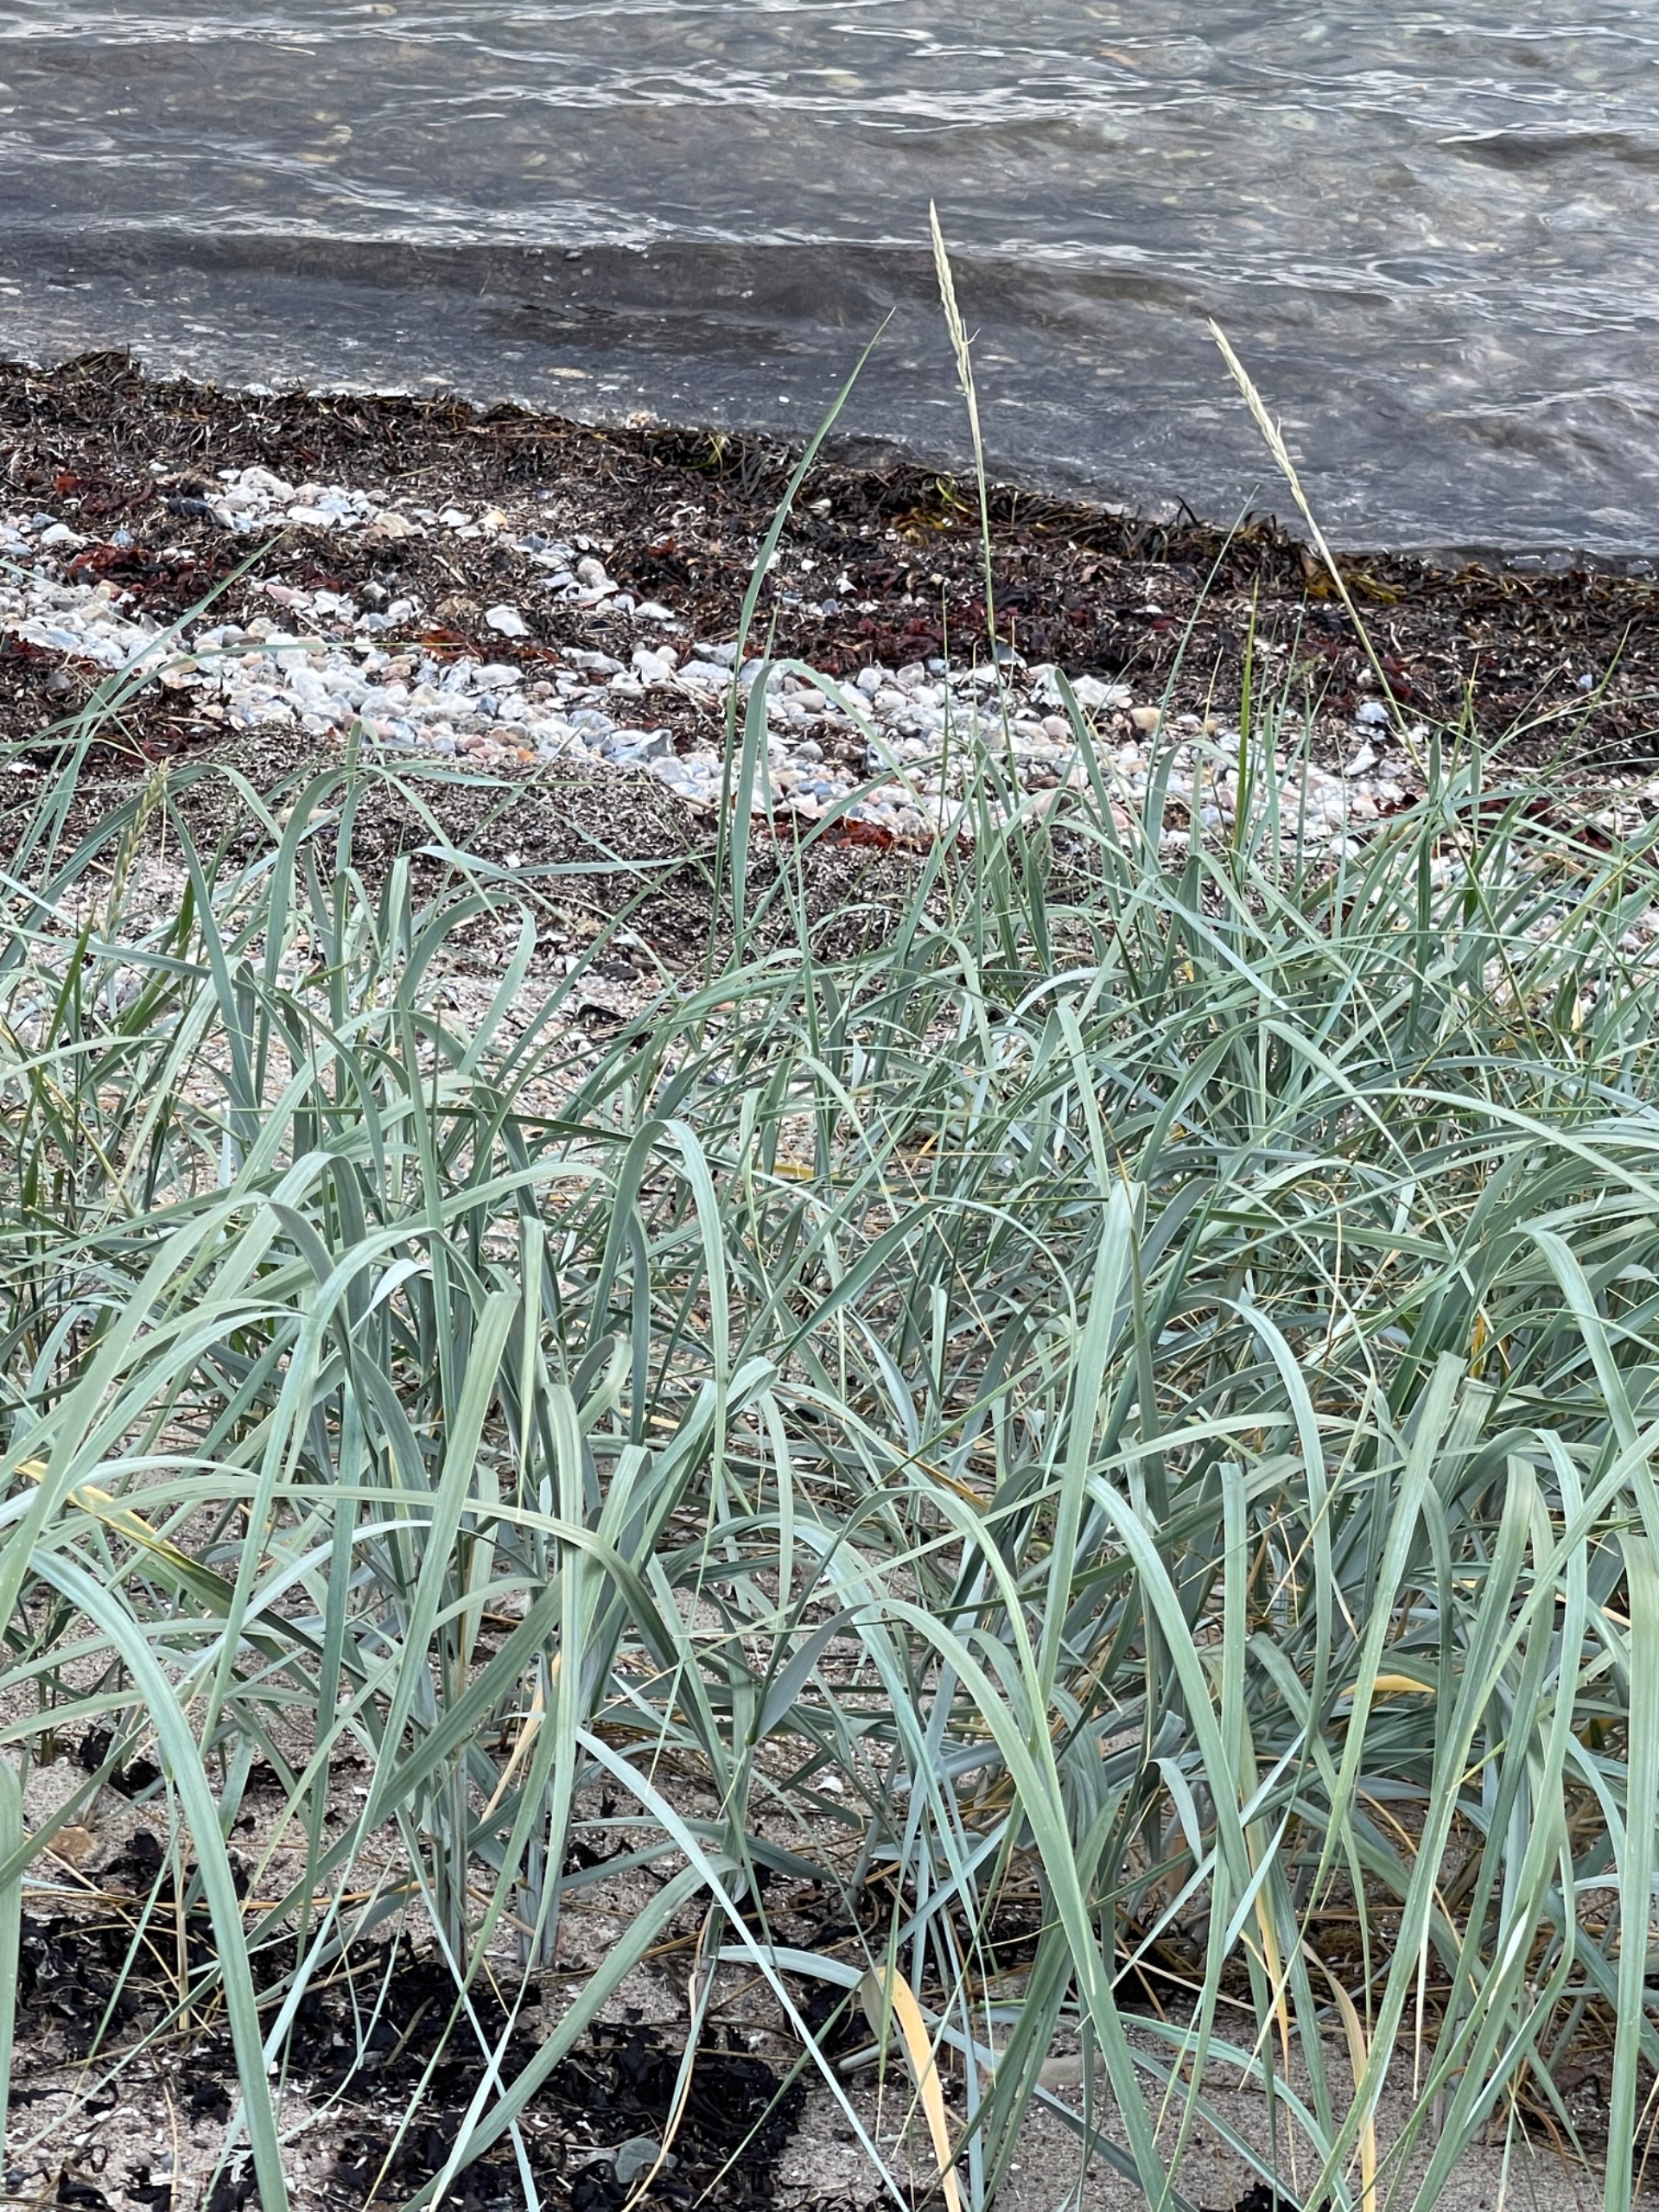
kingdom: Plantae
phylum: Tracheophyta
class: Liliopsida
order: Poales
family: Poaceae
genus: Leymus
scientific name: Leymus arenarius
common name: Marehalm
